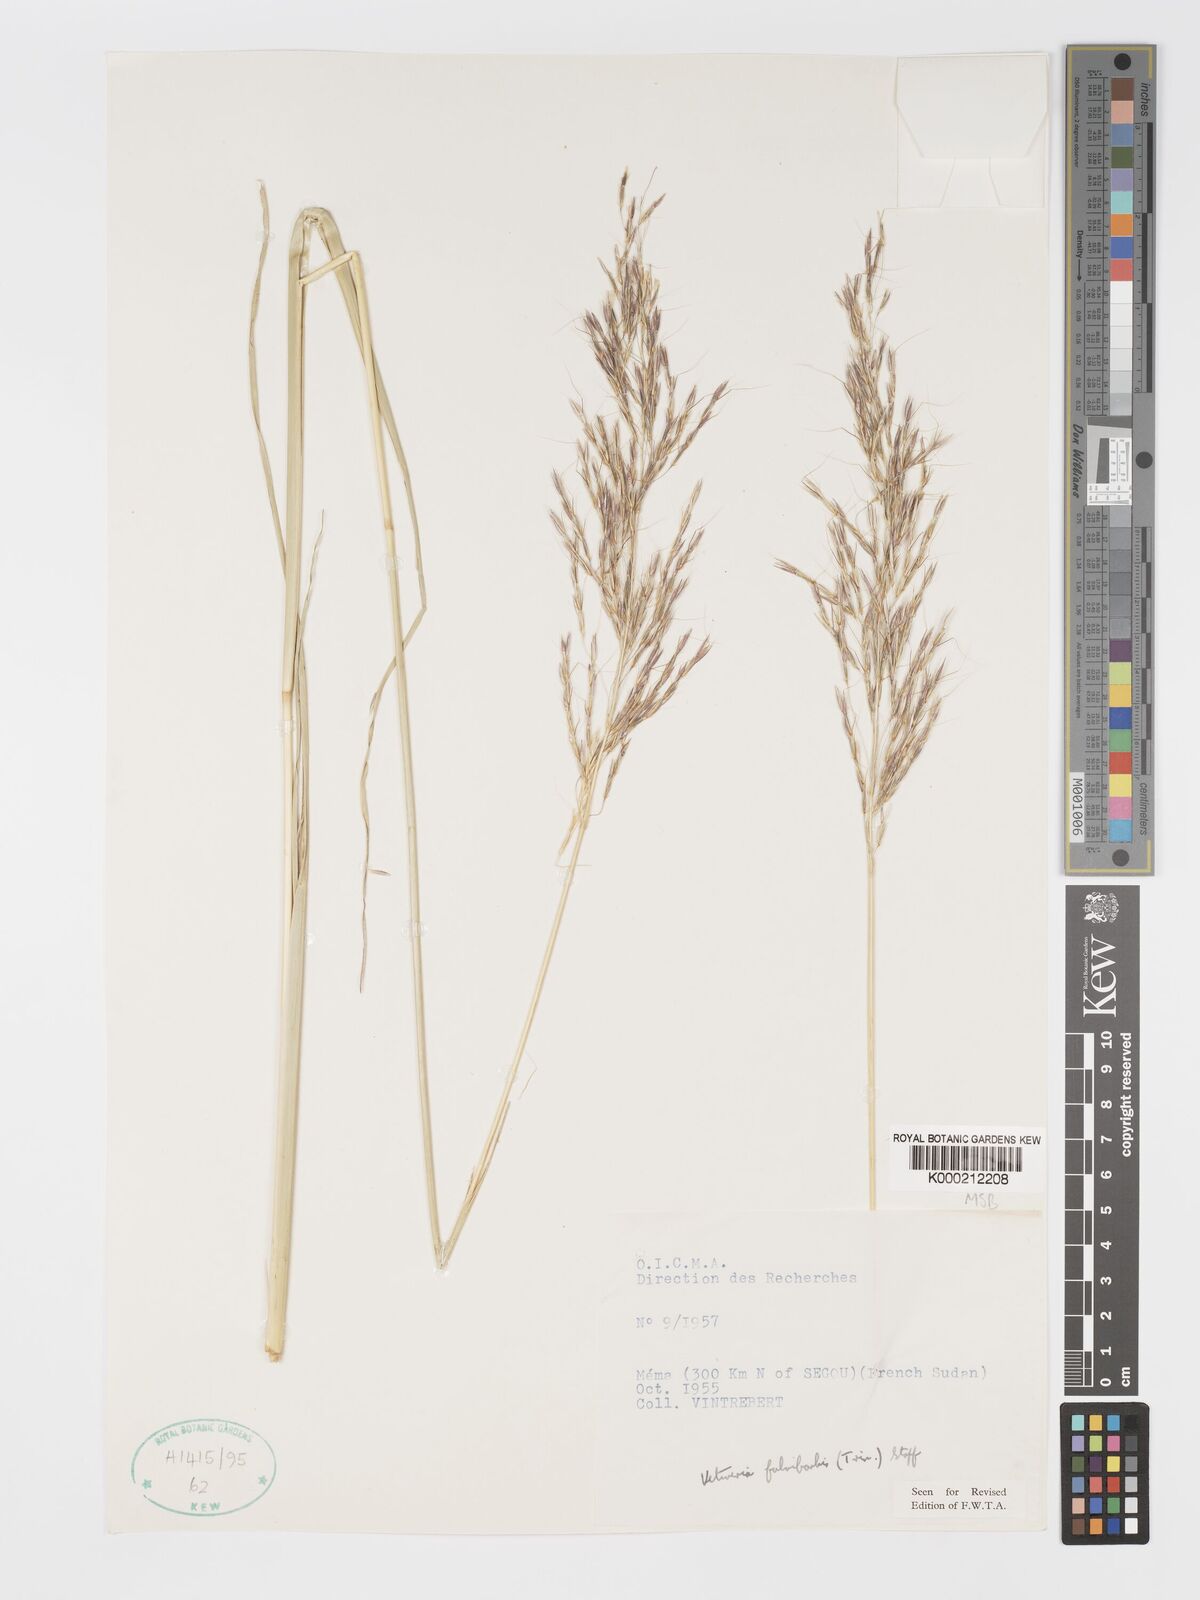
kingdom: Plantae
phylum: Tracheophyta
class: Liliopsida
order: Poales
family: Poaceae
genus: Chrysopogon
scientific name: Chrysopogon fulvibarbis
